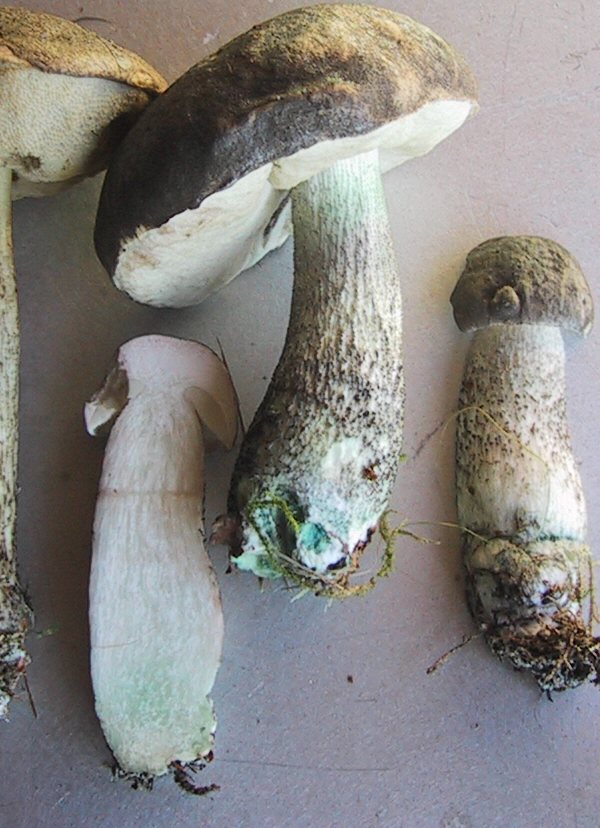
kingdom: Fungi
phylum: Basidiomycota
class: Agaricomycetes
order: Boletales
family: Boletaceae
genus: Leccinum
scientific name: Leccinum variicolor
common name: flammet skælrørhat
